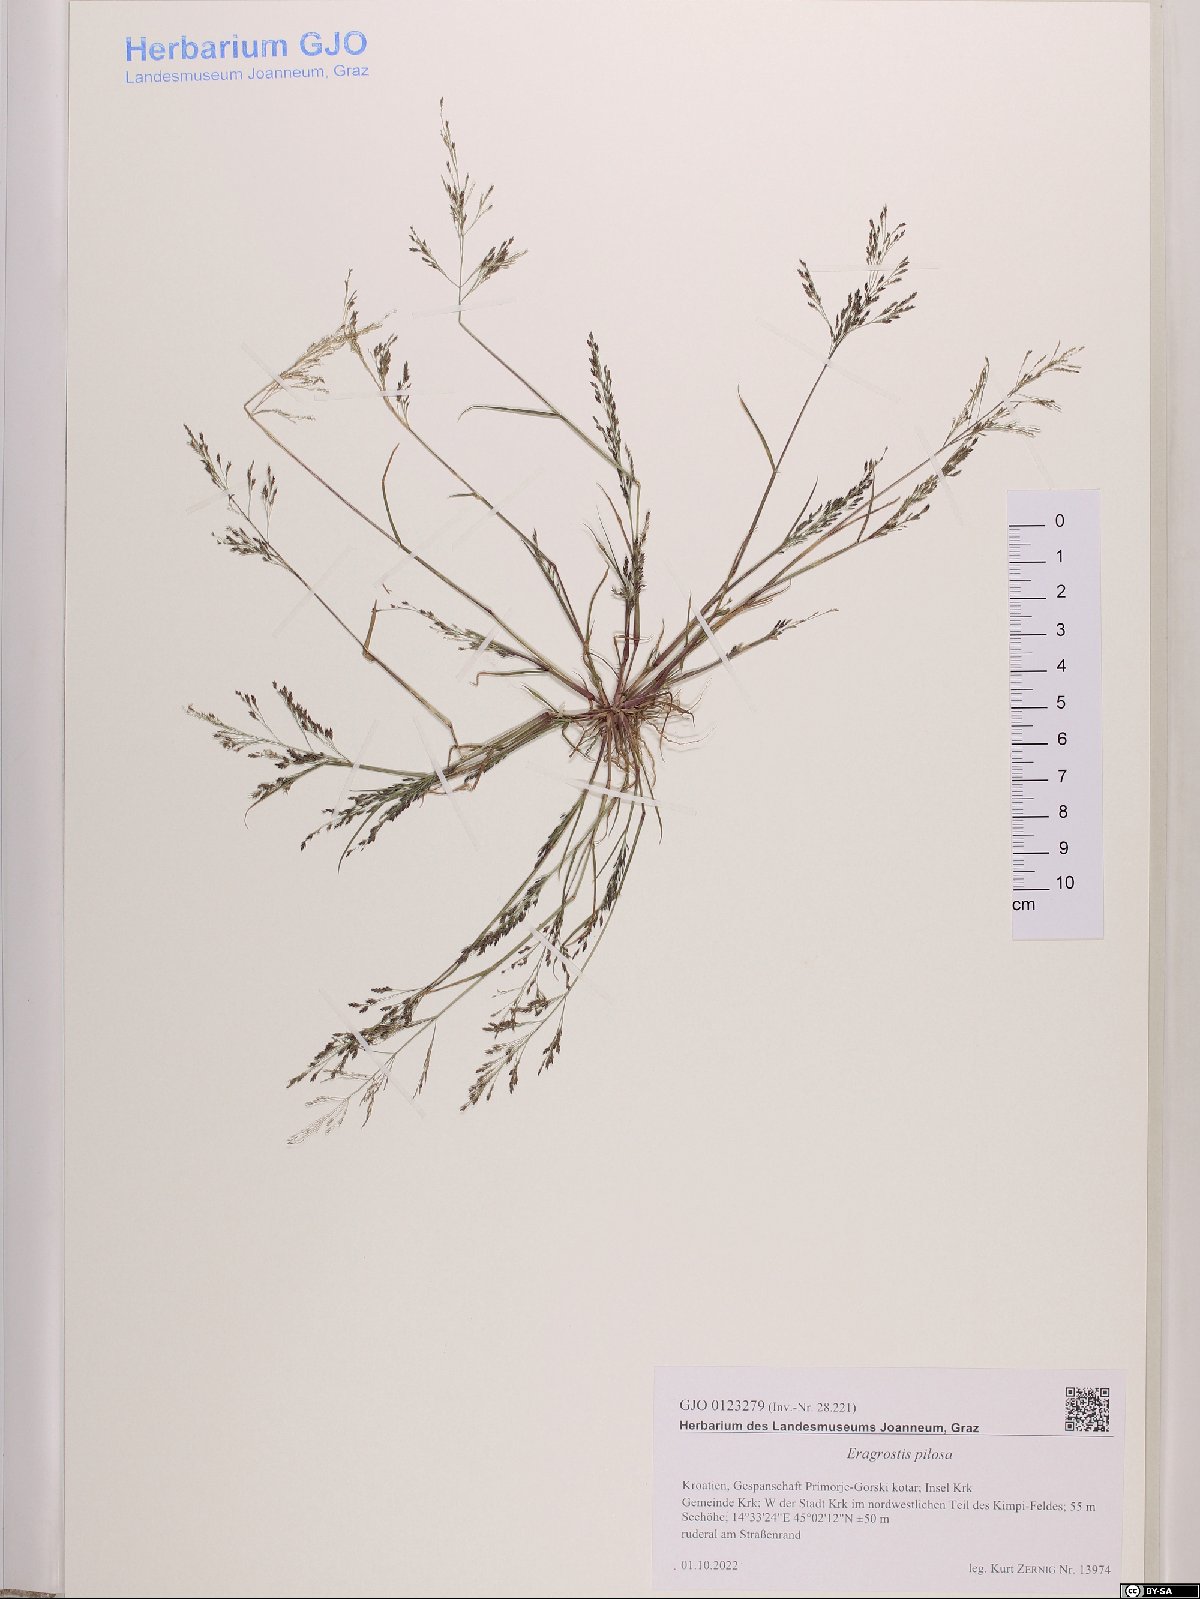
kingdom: Plantae
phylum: Tracheophyta
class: Liliopsida
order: Poales
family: Poaceae
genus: Eragrostis
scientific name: Eragrostis pilosa
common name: Indian lovegrass
